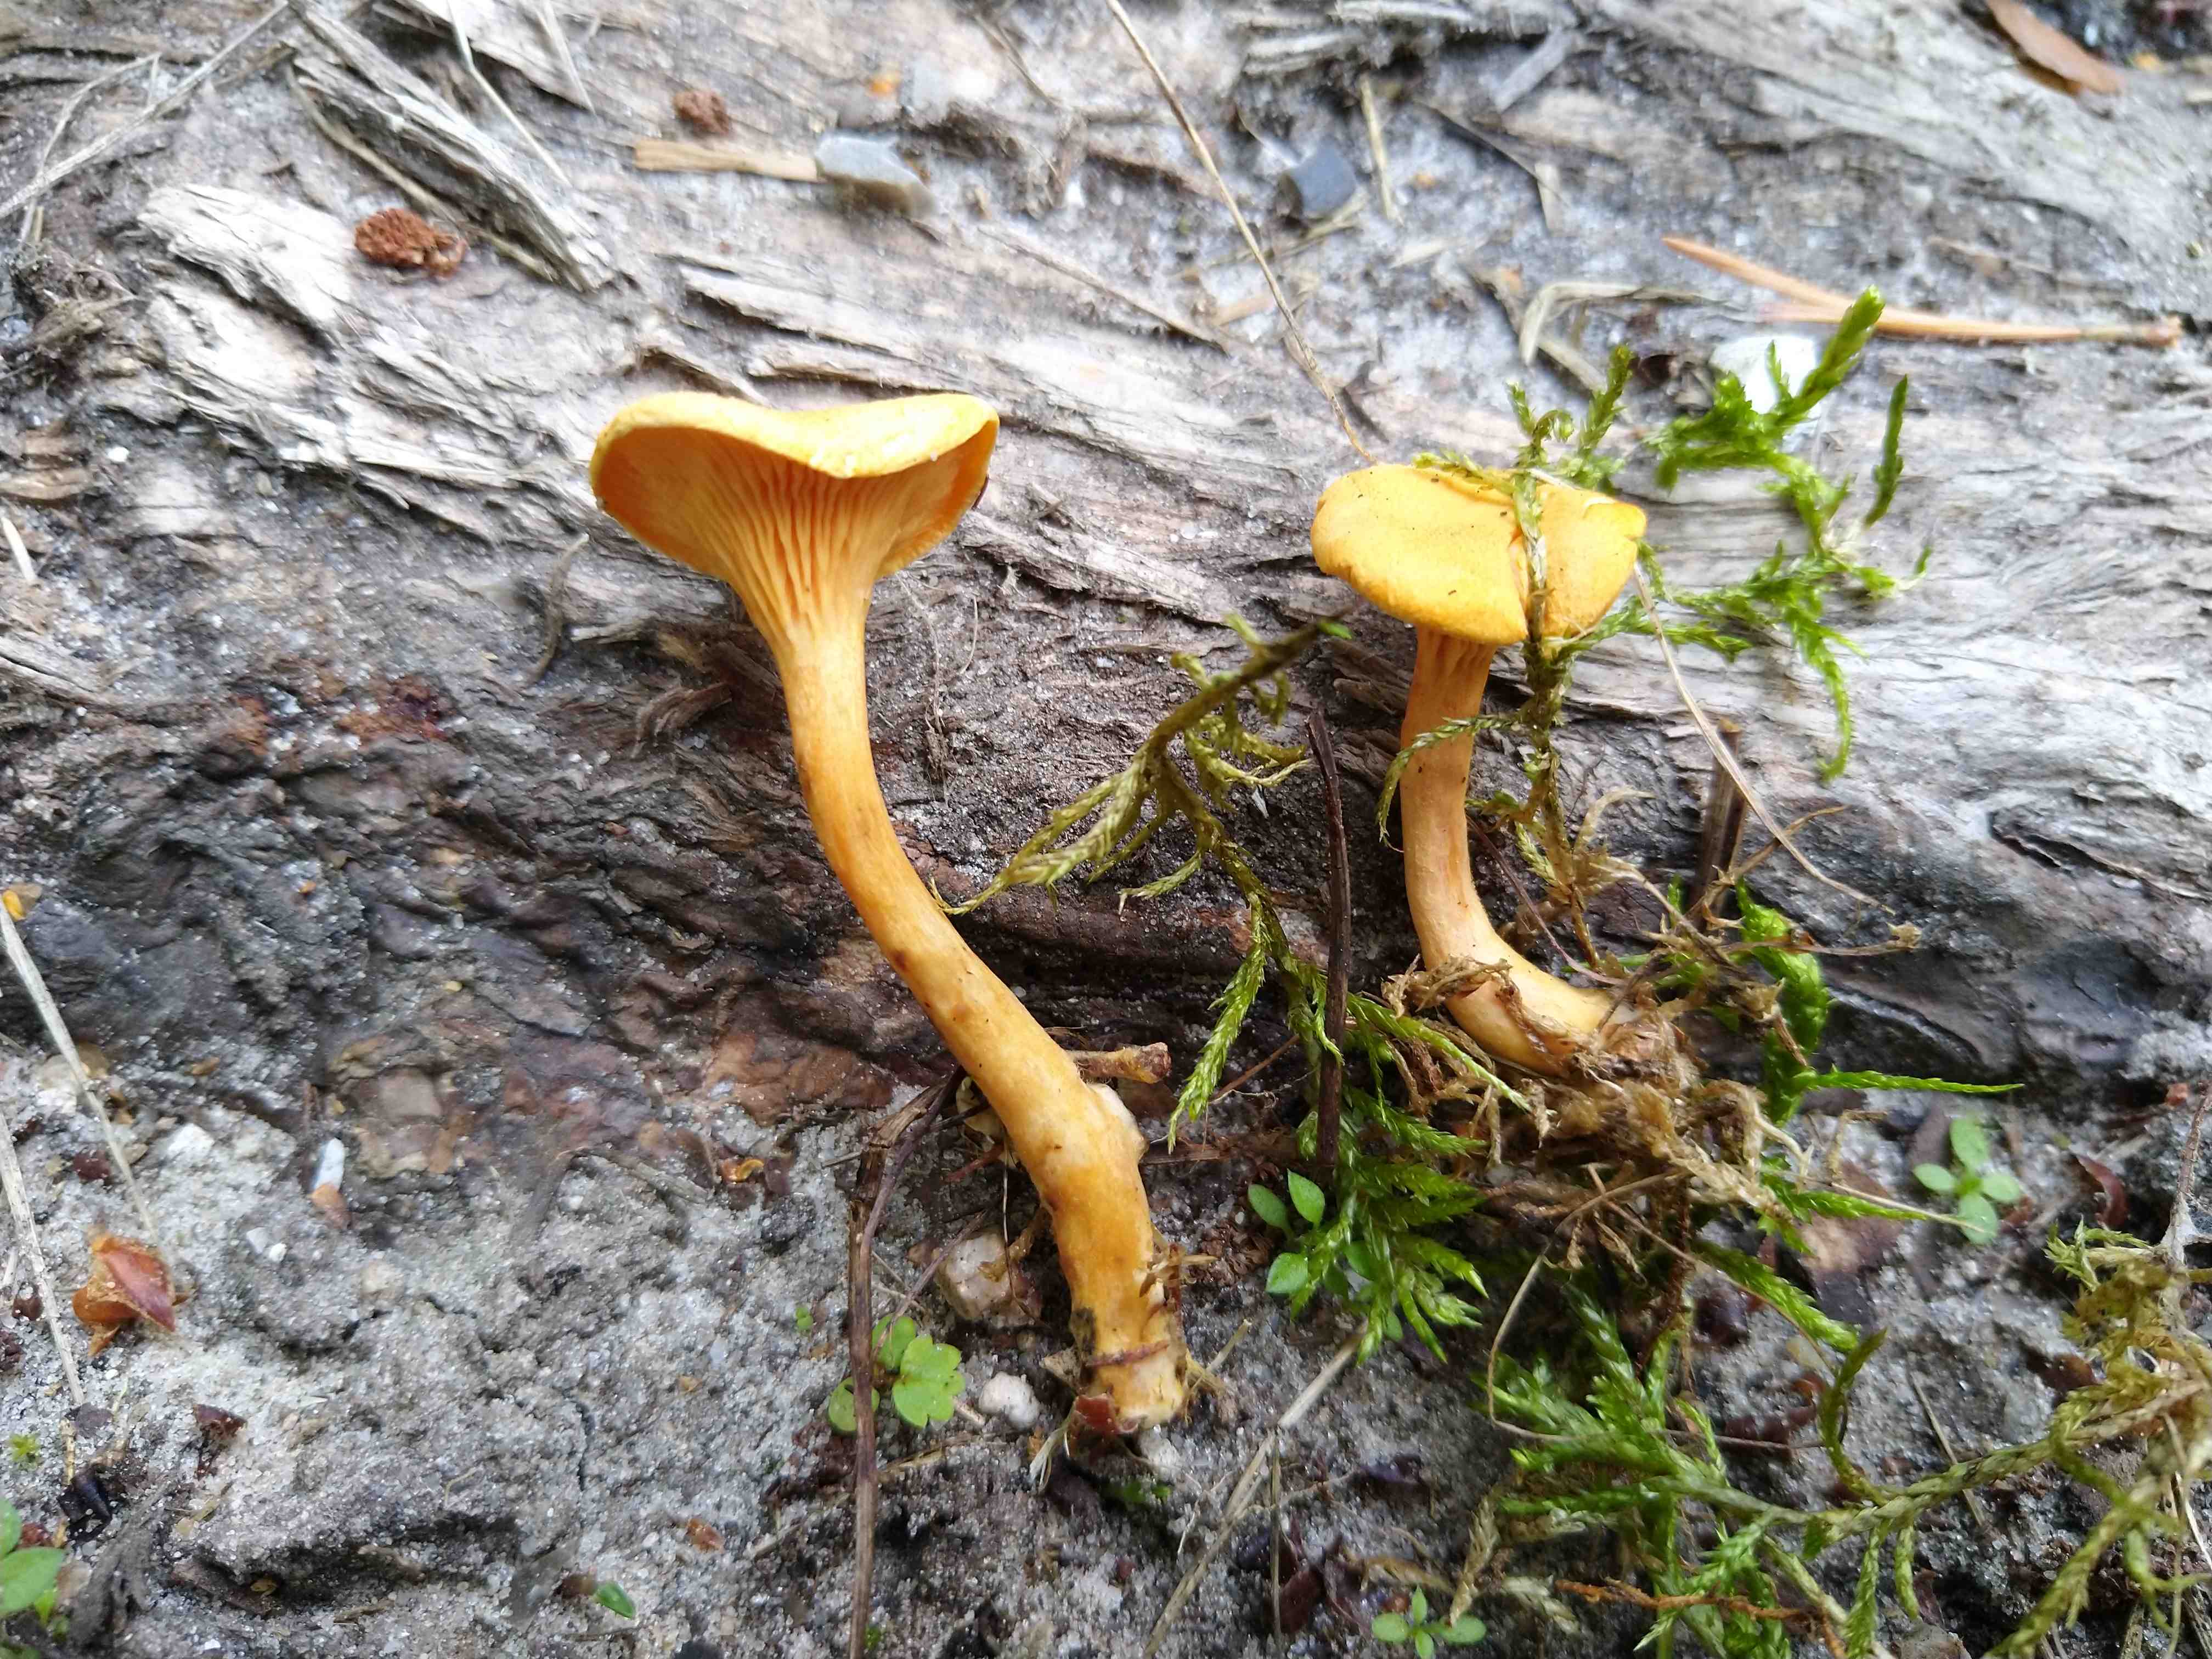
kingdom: Fungi
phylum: Basidiomycota
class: Agaricomycetes
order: Boletales
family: Hygrophoropsidaceae
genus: Hygrophoropsis
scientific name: Hygrophoropsis aurantiaca
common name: almindelig orangekantarel
